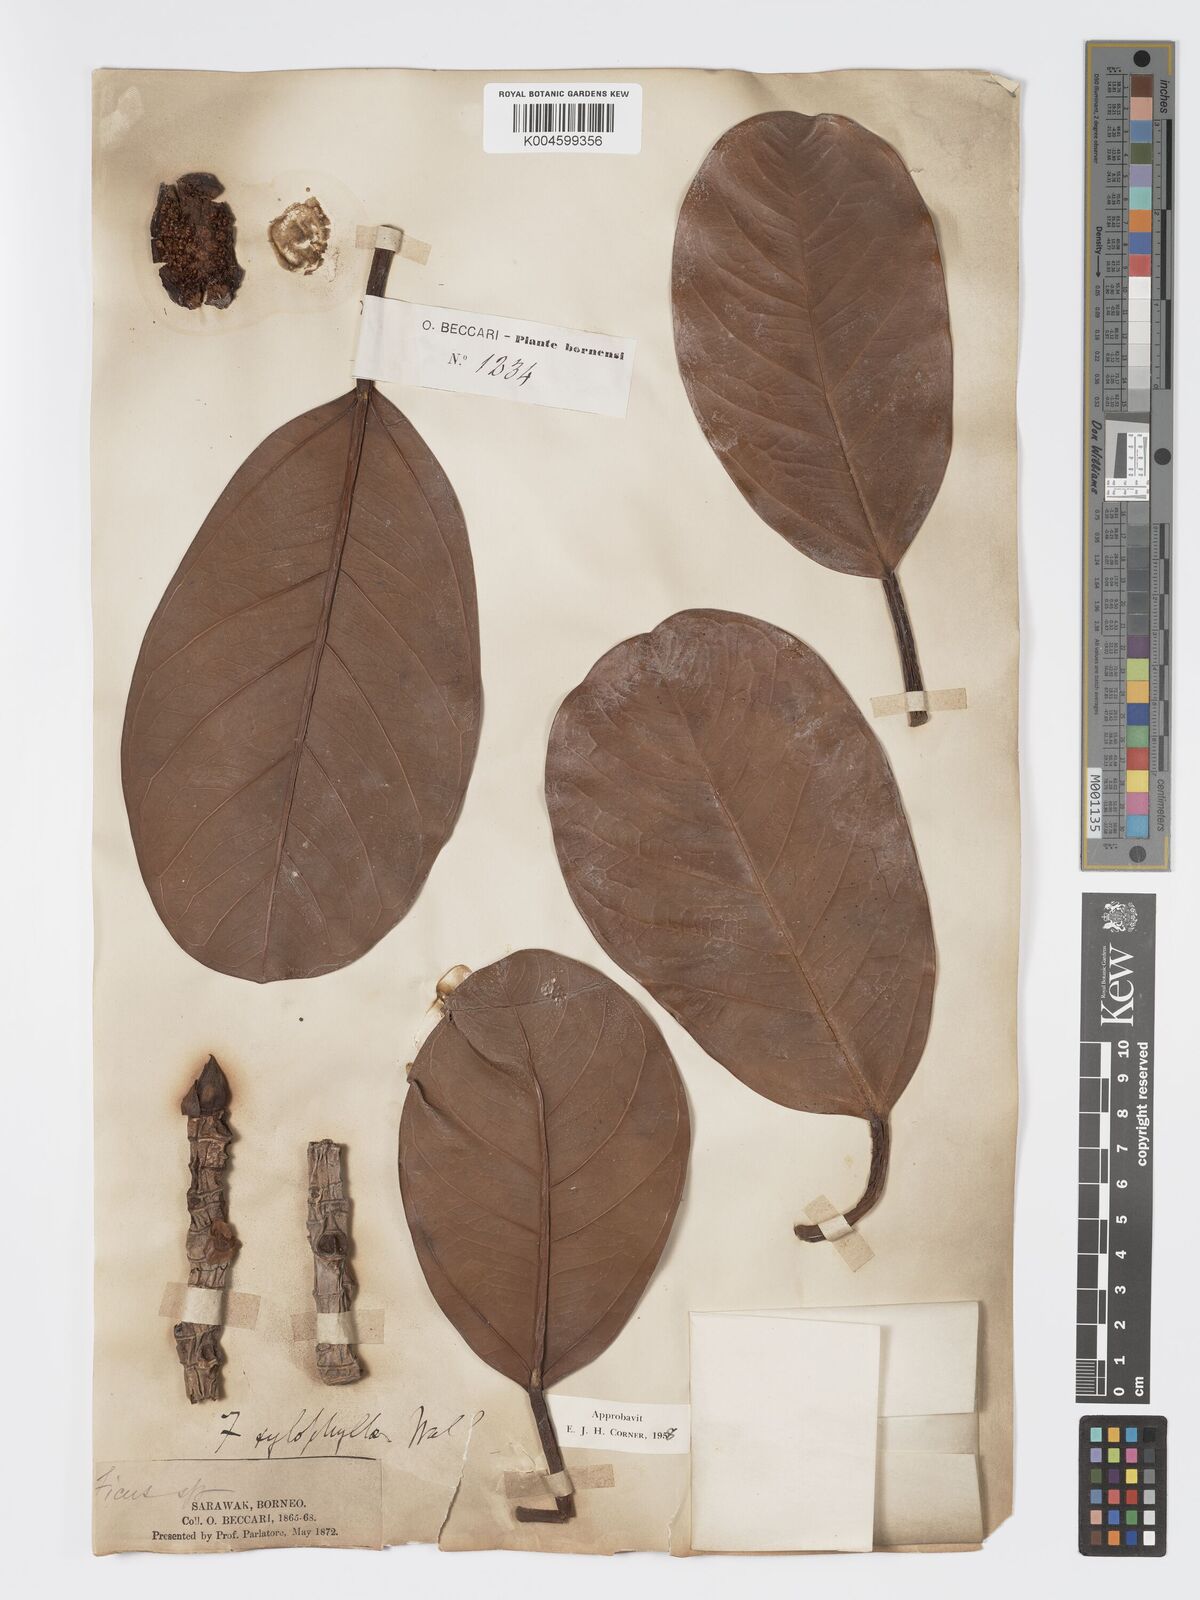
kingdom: Plantae
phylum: Tracheophyta
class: Magnoliopsida
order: Rosales
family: Moraceae
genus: Ficus
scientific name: Ficus xylophylla
